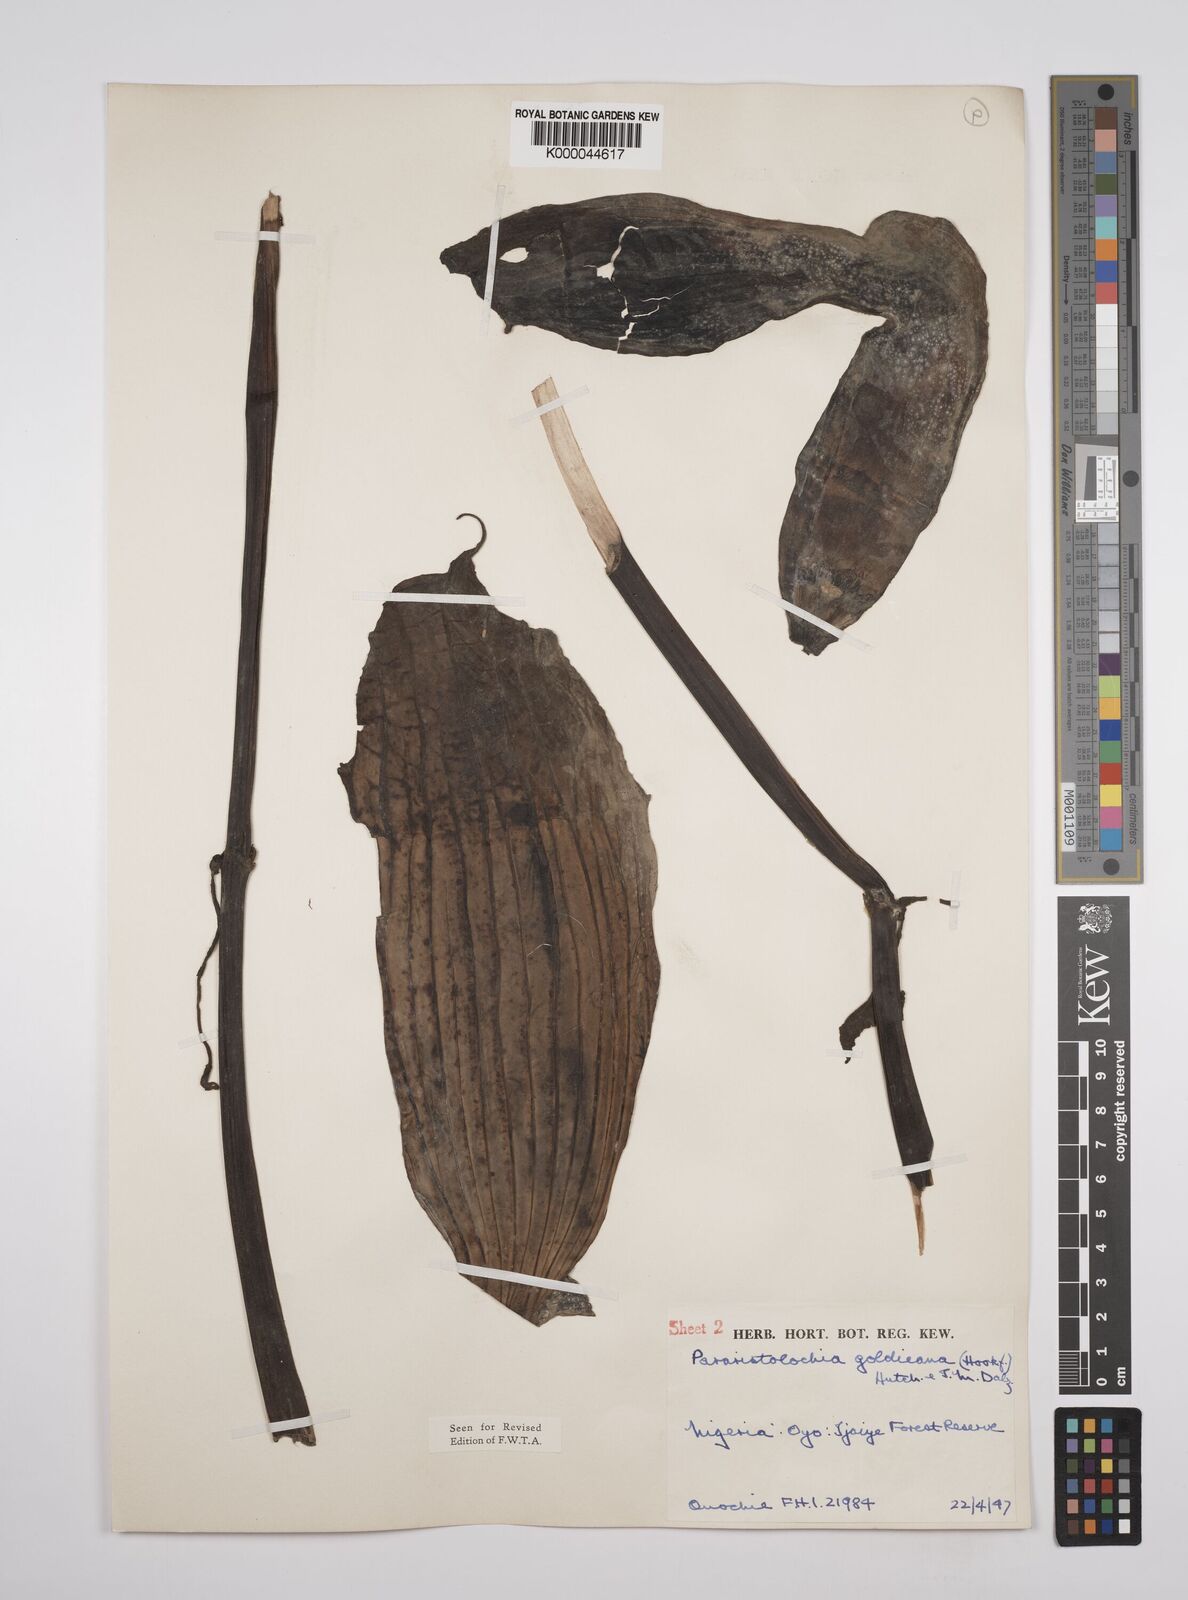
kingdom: Plantae
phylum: Tracheophyta
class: Magnoliopsida
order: Piperales
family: Aristolochiaceae
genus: Aristolochia
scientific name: Aristolochia goldieana
